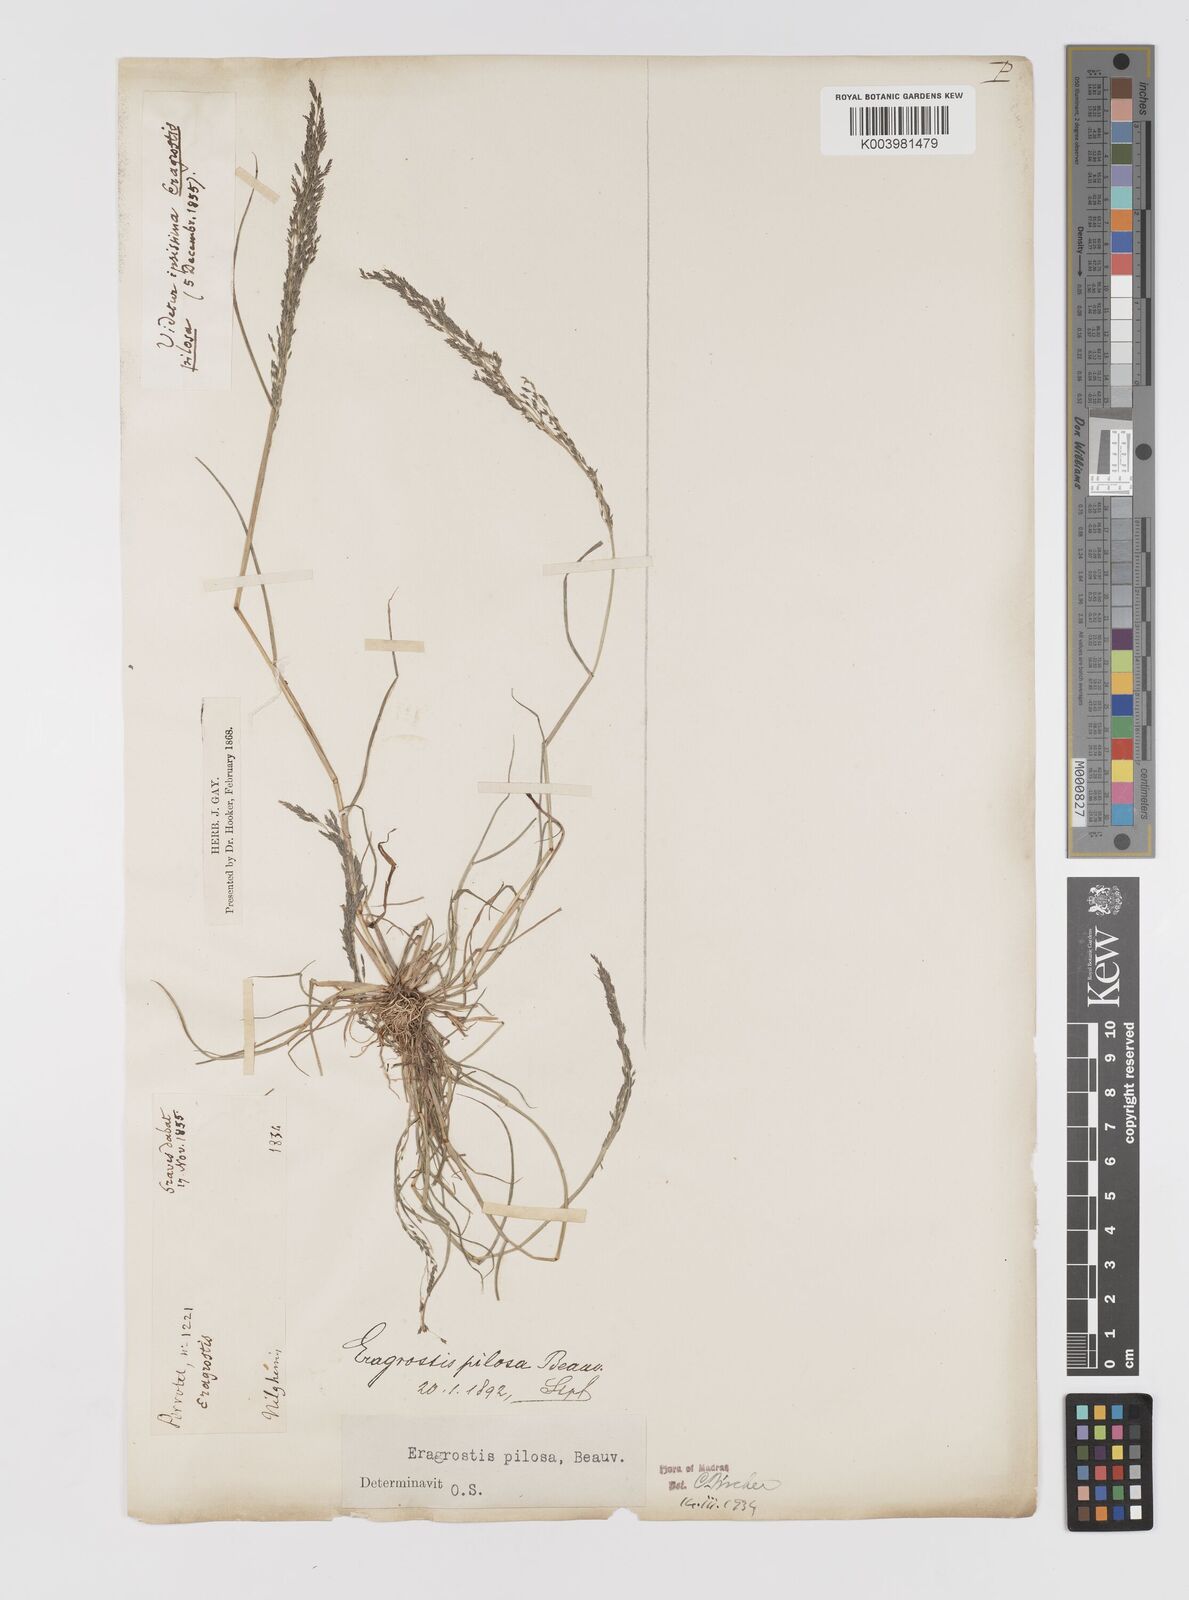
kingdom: Plantae
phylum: Tracheophyta
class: Liliopsida
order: Poales
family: Poaceae
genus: Eragrostis
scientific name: Eragrostis pilosa
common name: Indian lovegrass
